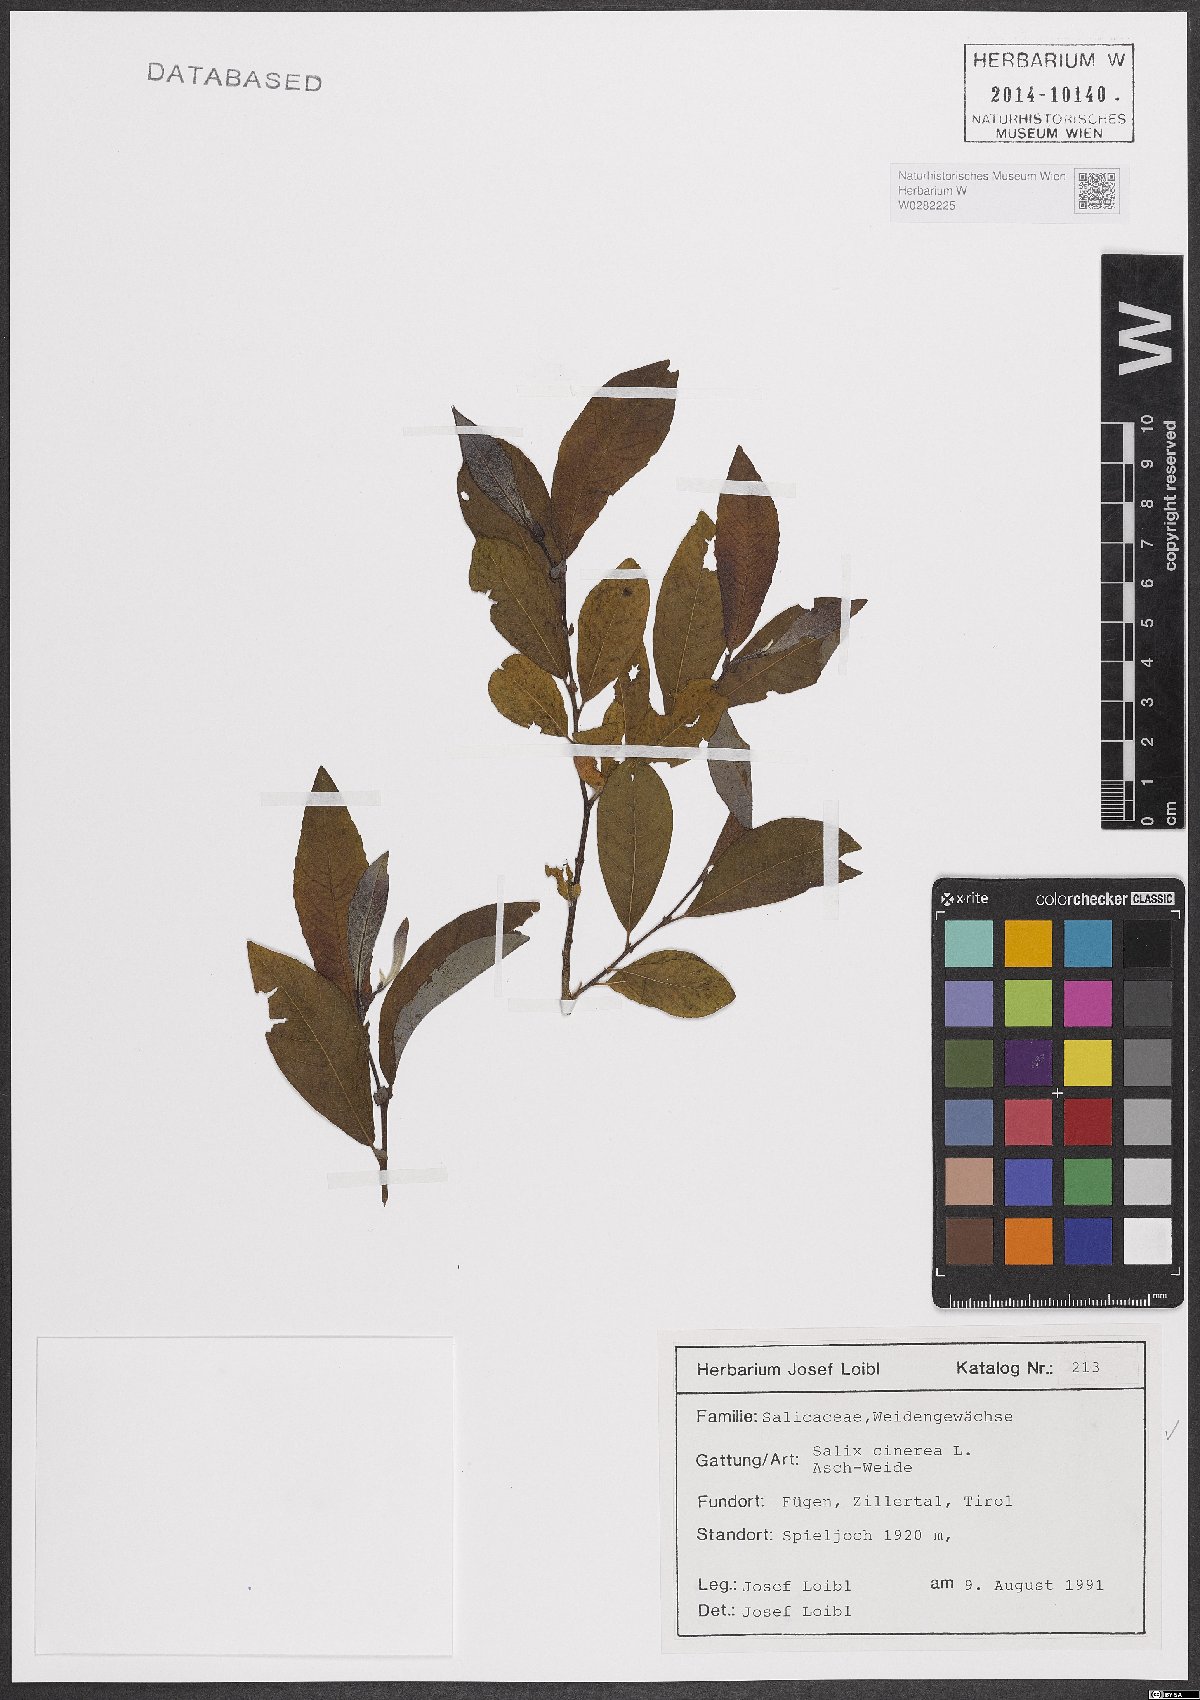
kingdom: Plantae
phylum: Tracheophyta
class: Magnoliopsida
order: Malpighiales
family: Salicaceae
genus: Salix
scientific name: Salix cinerea
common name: Common sallow
